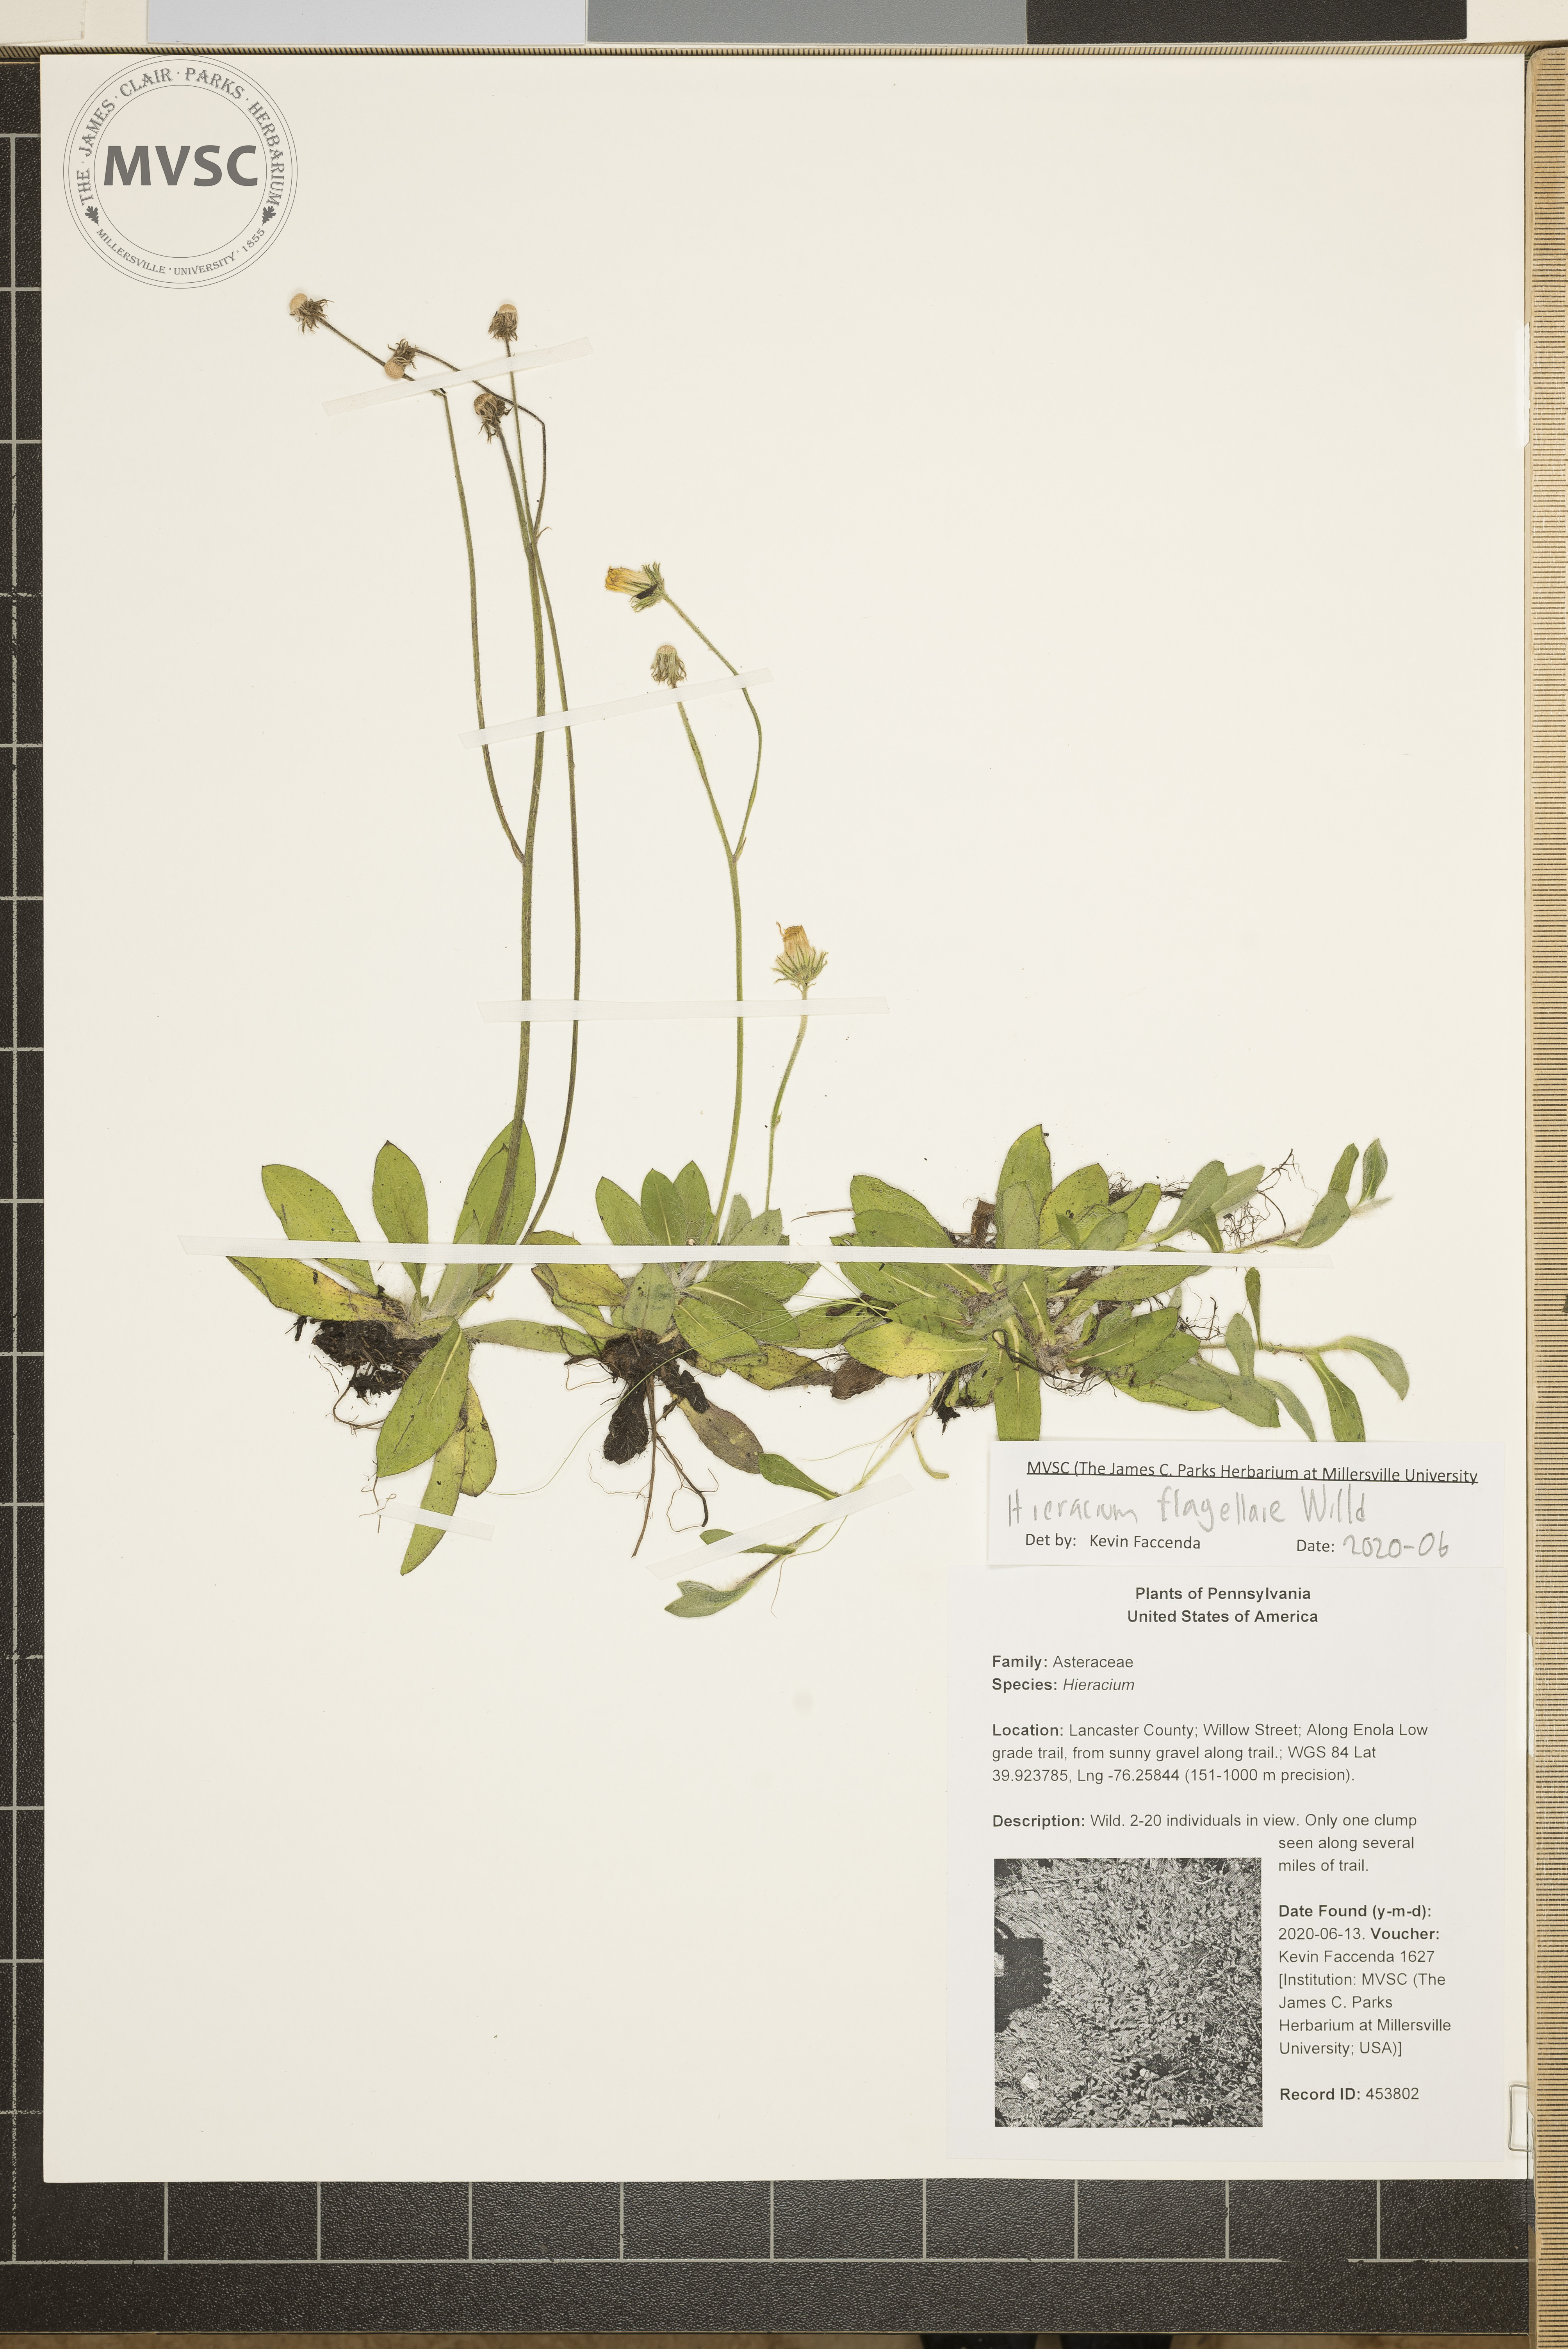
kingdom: Plantae
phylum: Tracheophyta
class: Magnoliopsida
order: Asterales
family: Asteraceae
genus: Pilosella
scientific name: Pilosella
